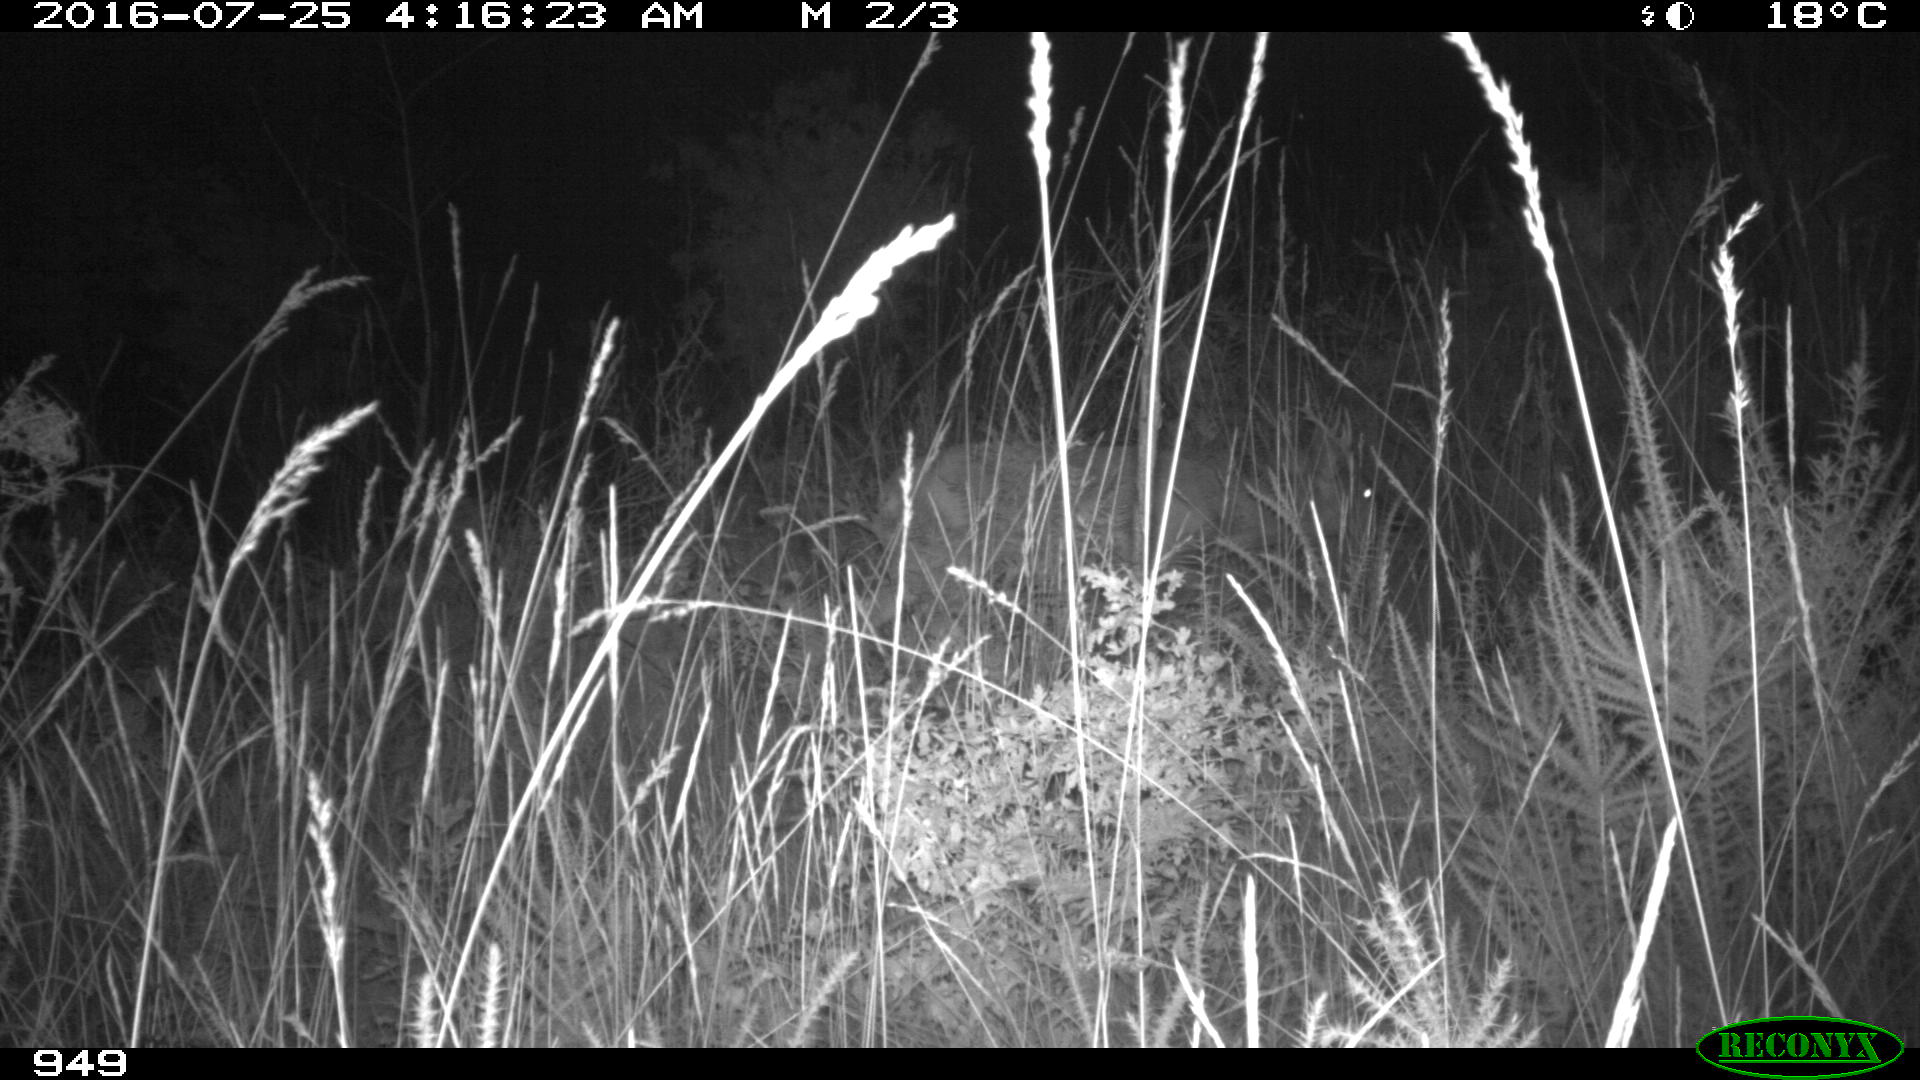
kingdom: Animalia
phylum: Chordata
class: Mammalia
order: Artiodactyla
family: Cervidae
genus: Capreolus
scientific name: Capreolus capreolus
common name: Western roe deer
